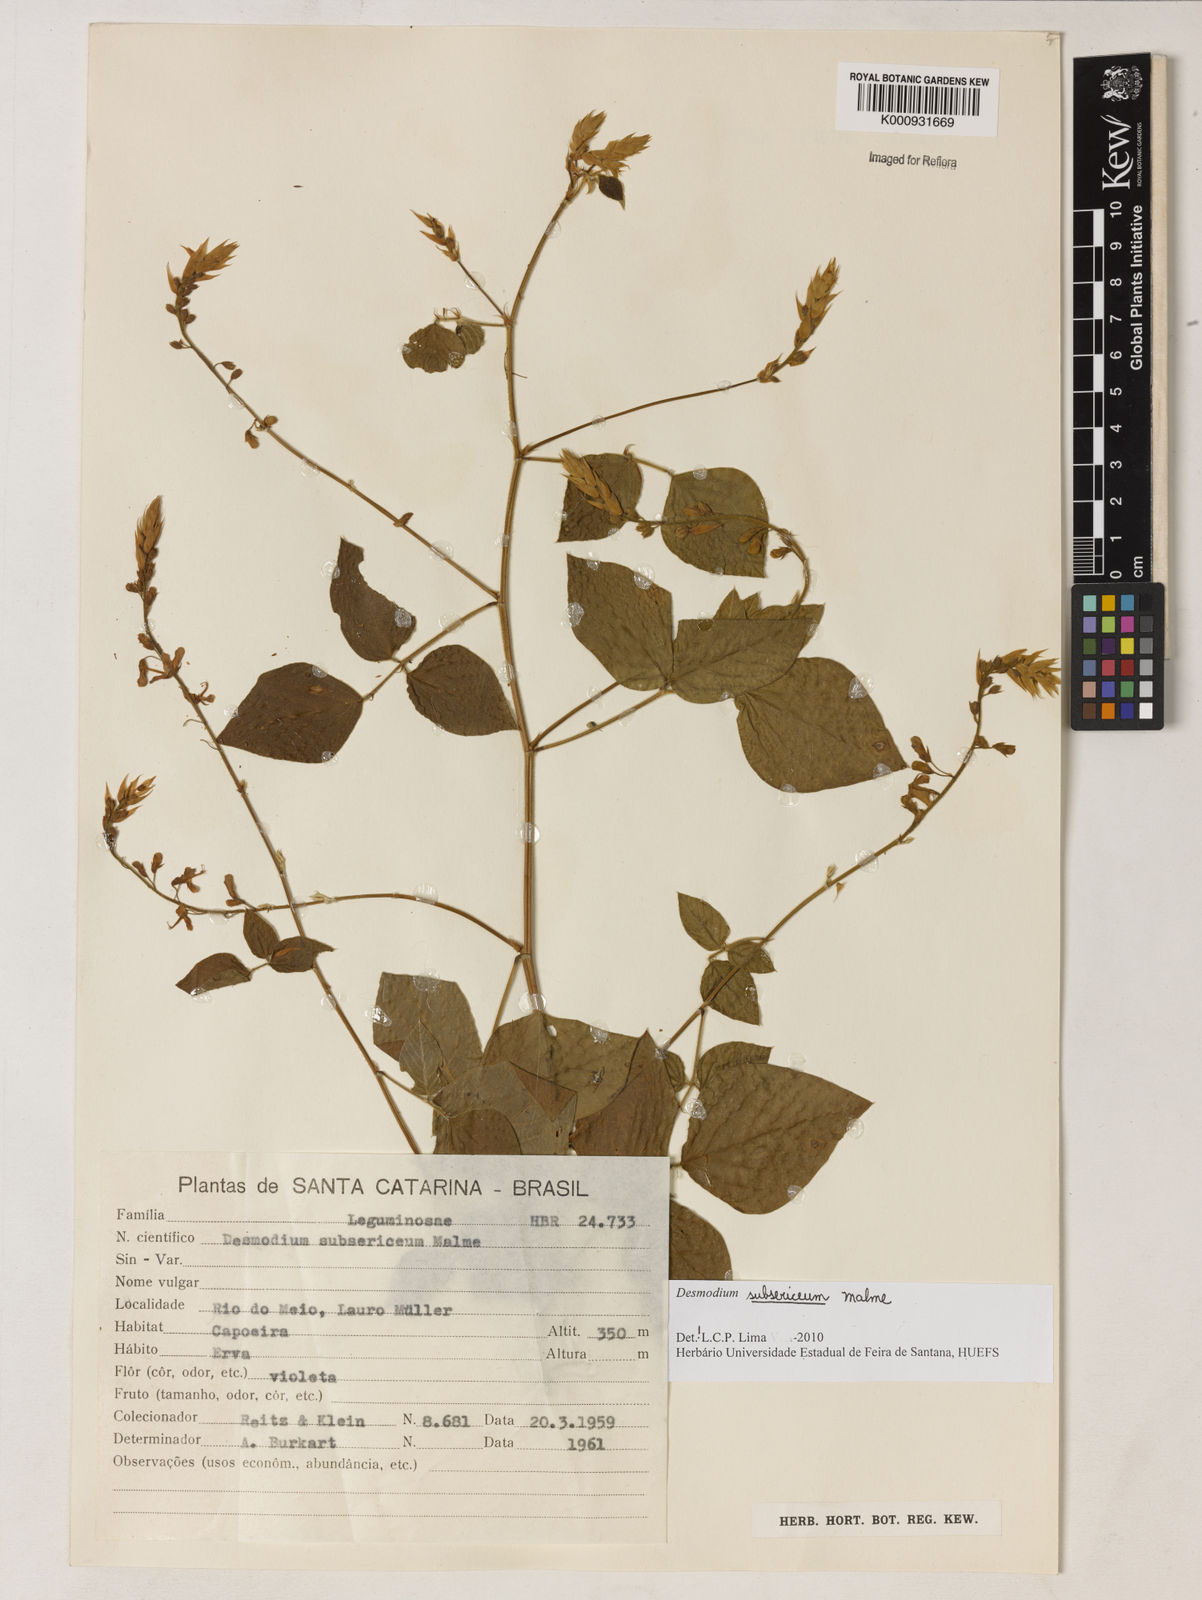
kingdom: Plantae
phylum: Tracheophyta
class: Magnoliopsida
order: Fabales
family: Fabaceae
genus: Desmodium
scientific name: Desmodium subsericeum
